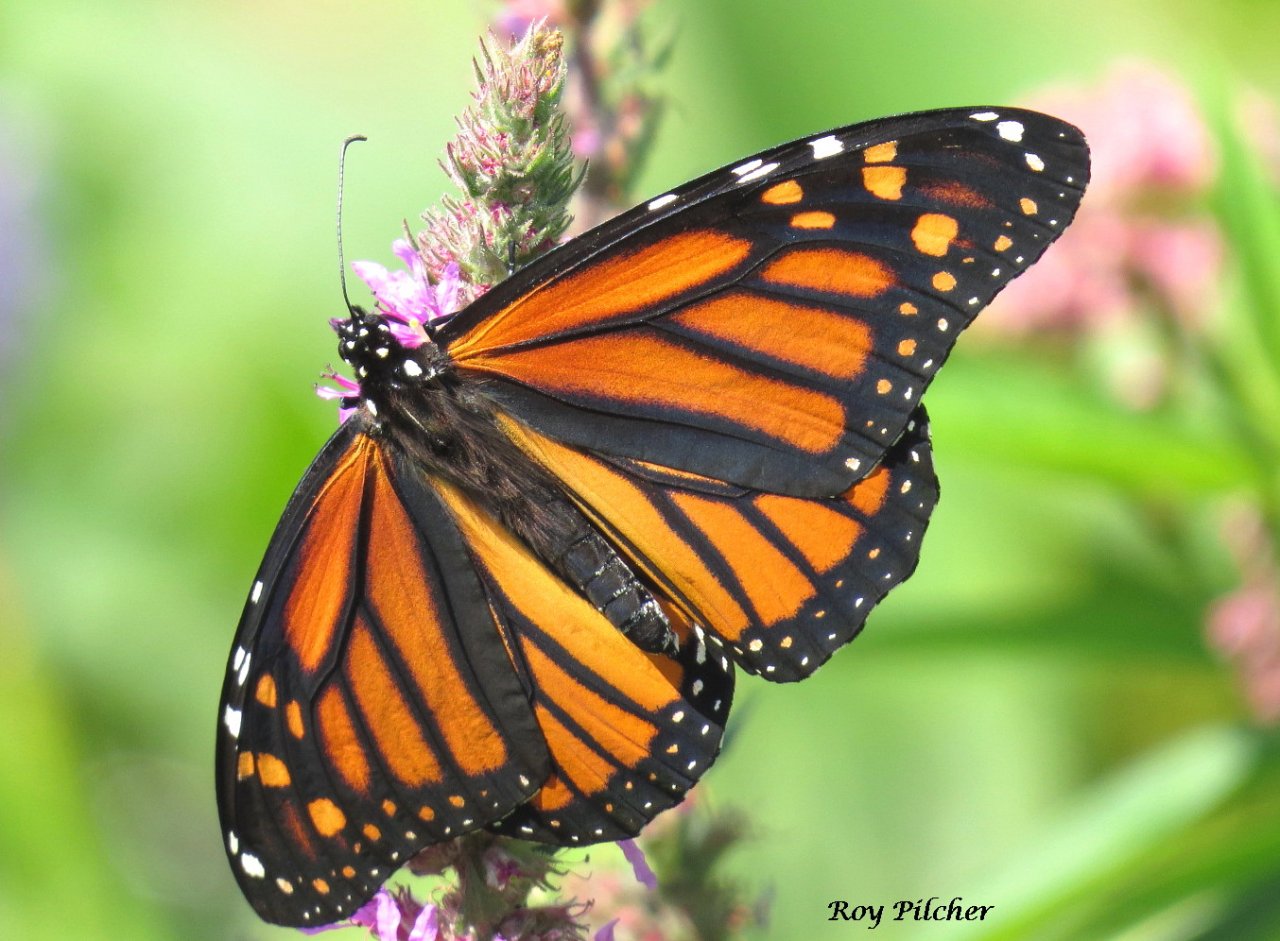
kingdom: Animalia
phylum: Arthropoda
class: Insecta
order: Lepidoptera
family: Nymphalidae
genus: Danaus
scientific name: Danaus plexippus
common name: Monarch
